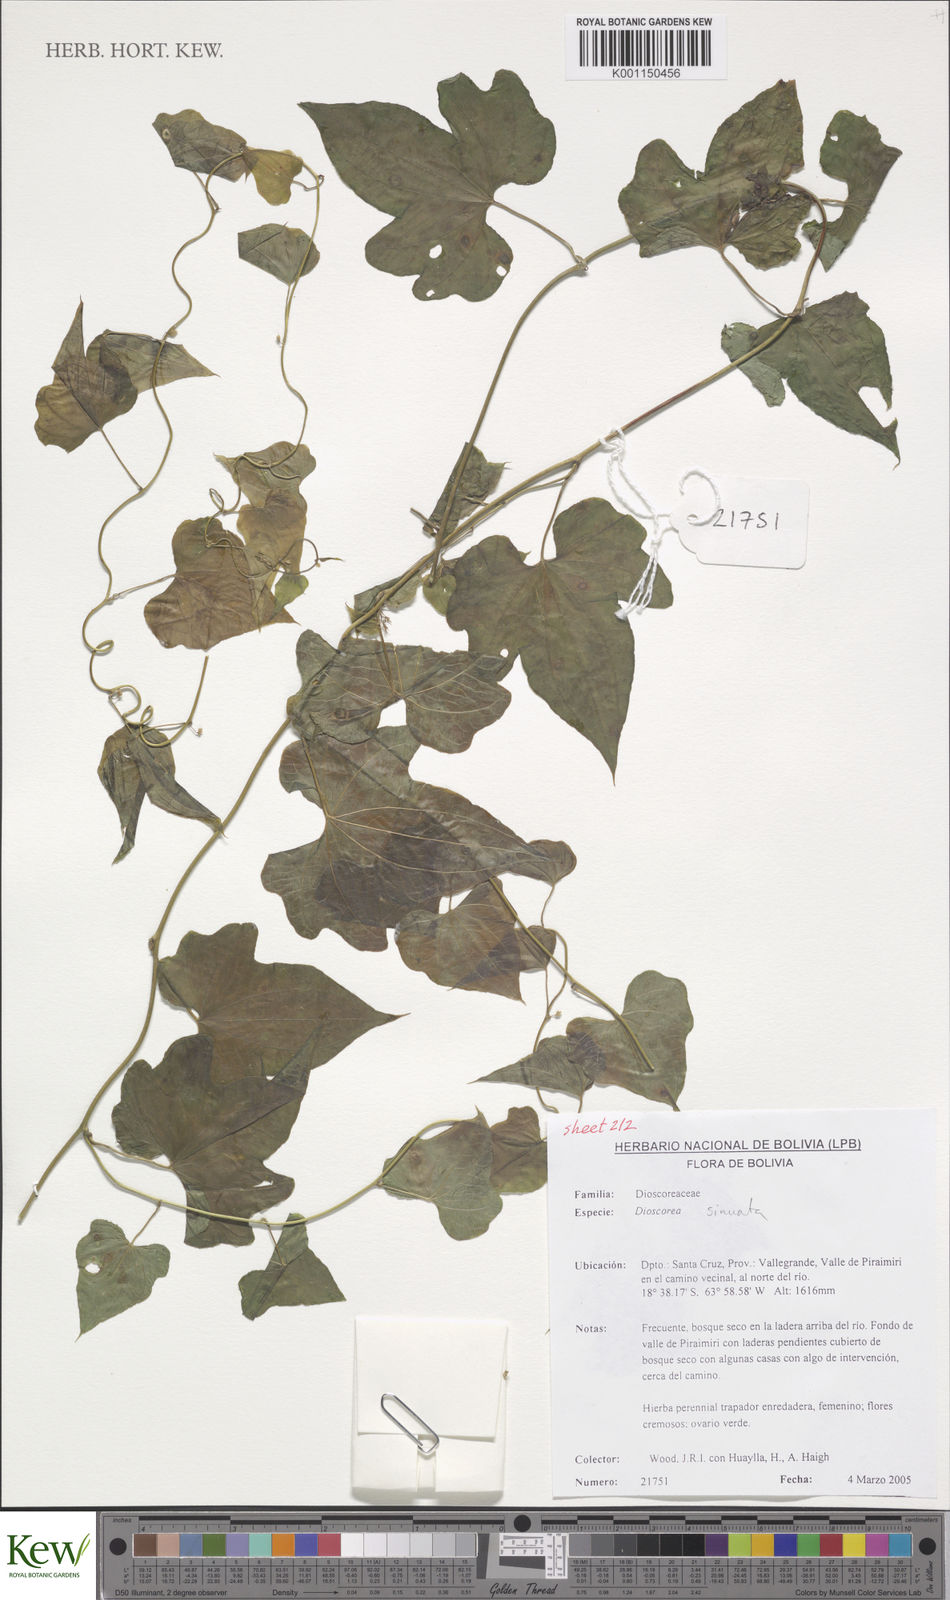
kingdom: Plantae
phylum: Tracheophyta
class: Liliopsida
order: Dioscoreales
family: Dioscoreaceae
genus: Dioscorea
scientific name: Dioscorea sinuata
